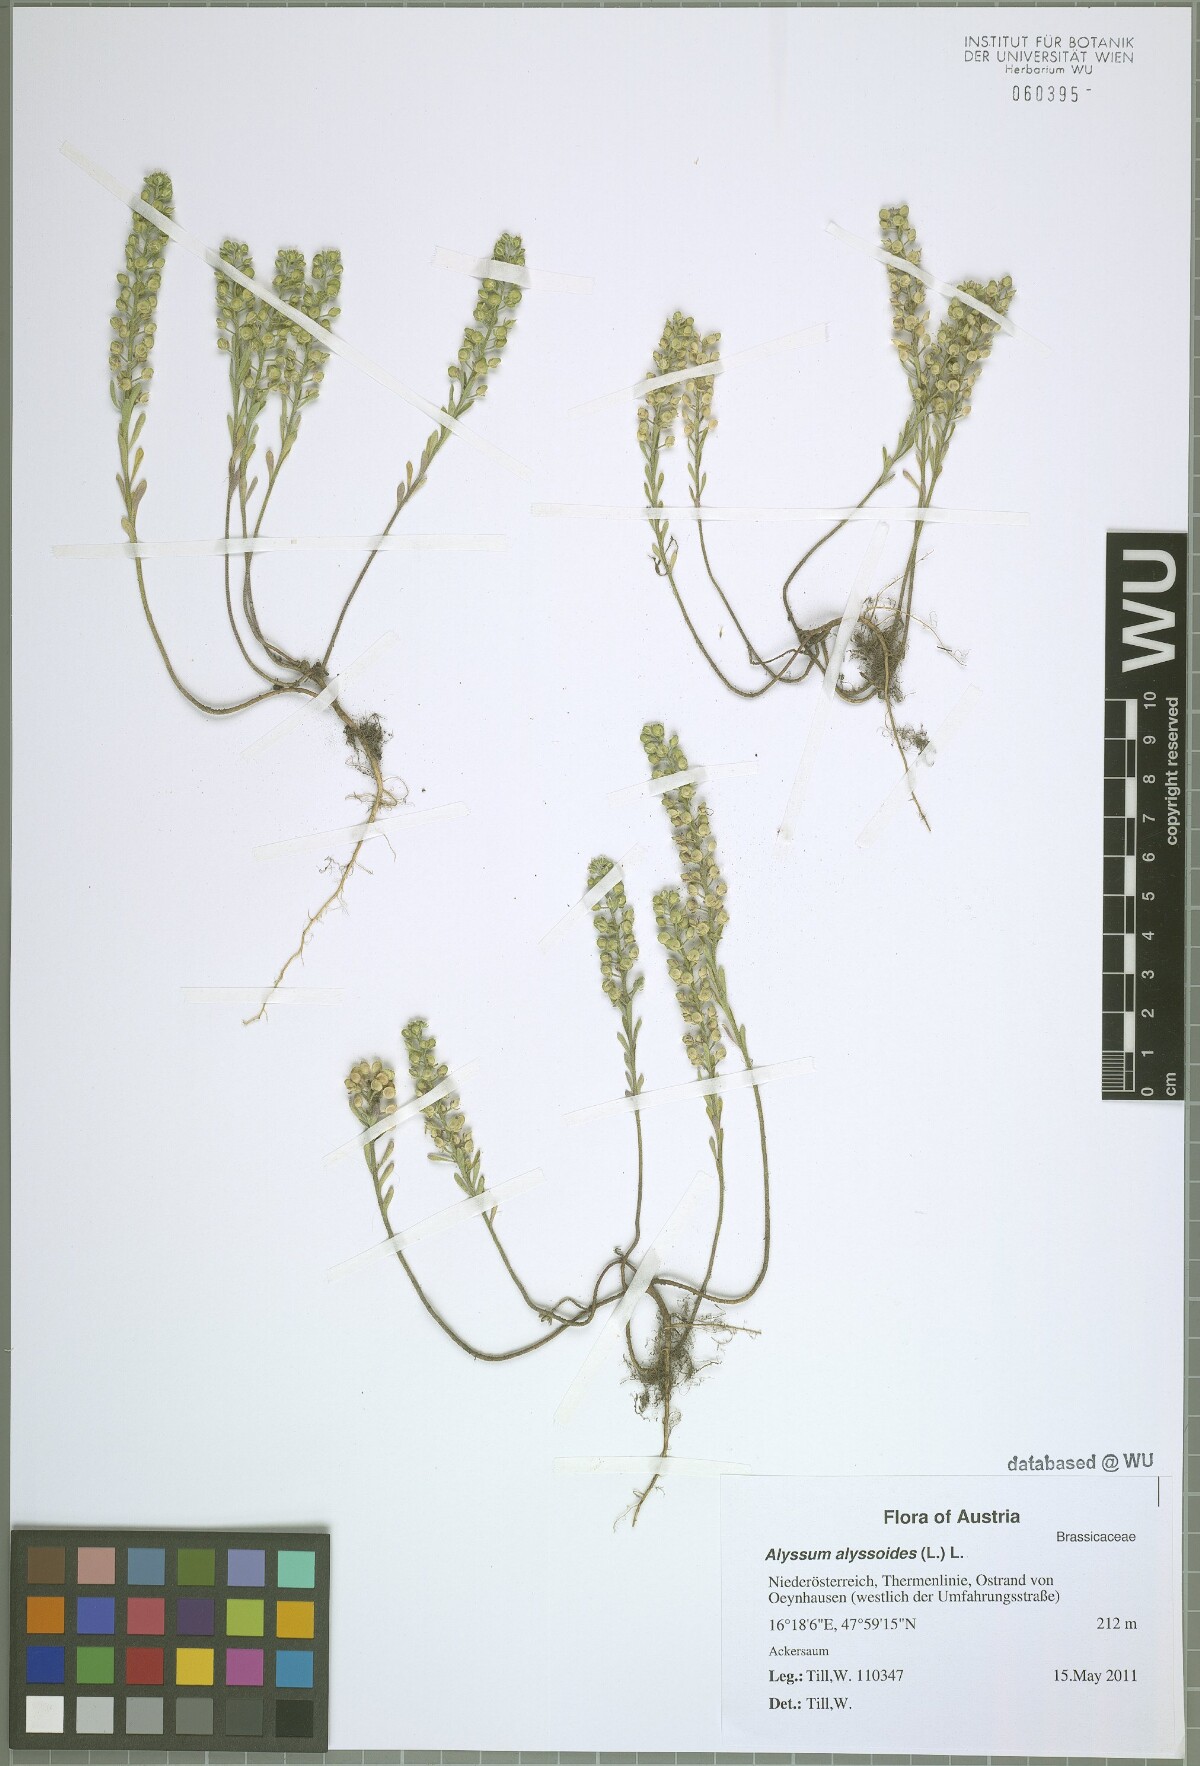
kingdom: Plantae
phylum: Tracheophyta
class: Magnoliopsida
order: Brassicales
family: Brassicaceae
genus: Alyssum
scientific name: Alyssum alyssoides
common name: Small alison
